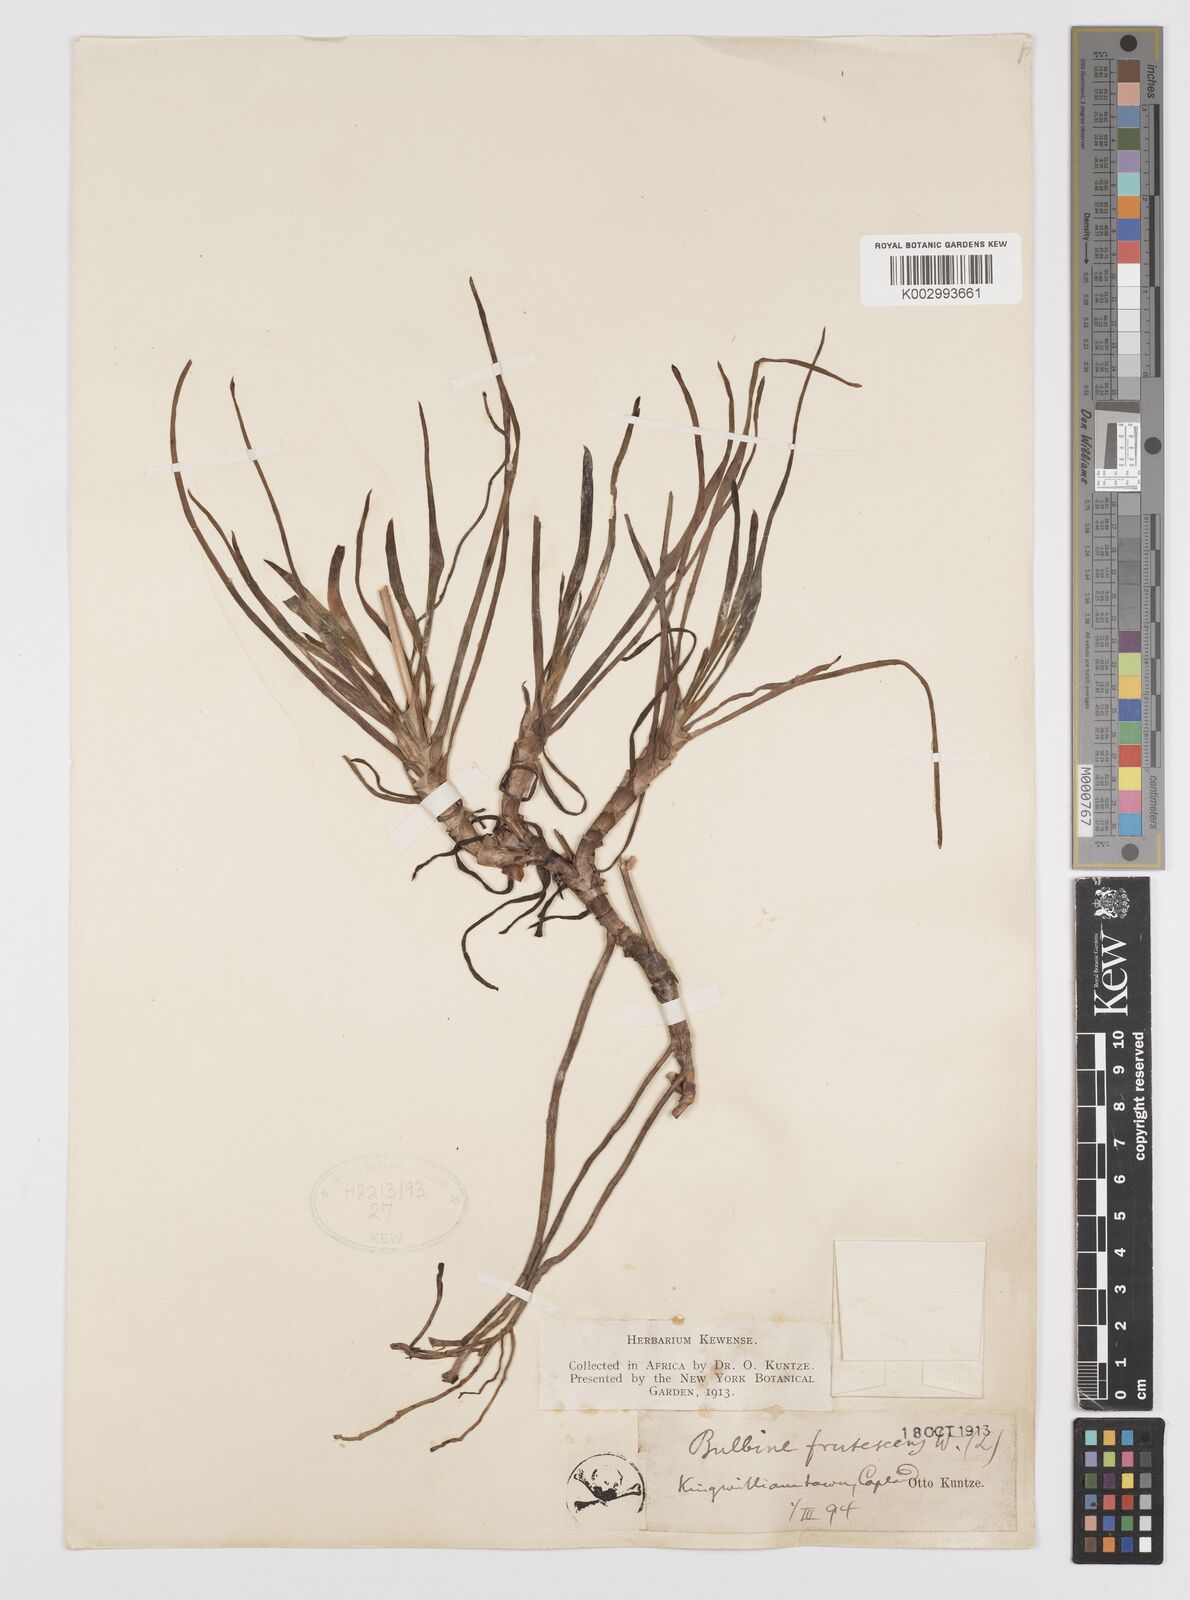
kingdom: Plantae
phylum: Tracheophyta
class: Liliopsida
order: Asparagales
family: Asphodelaceae
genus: Bulbine
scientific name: Bulbine frutescens
